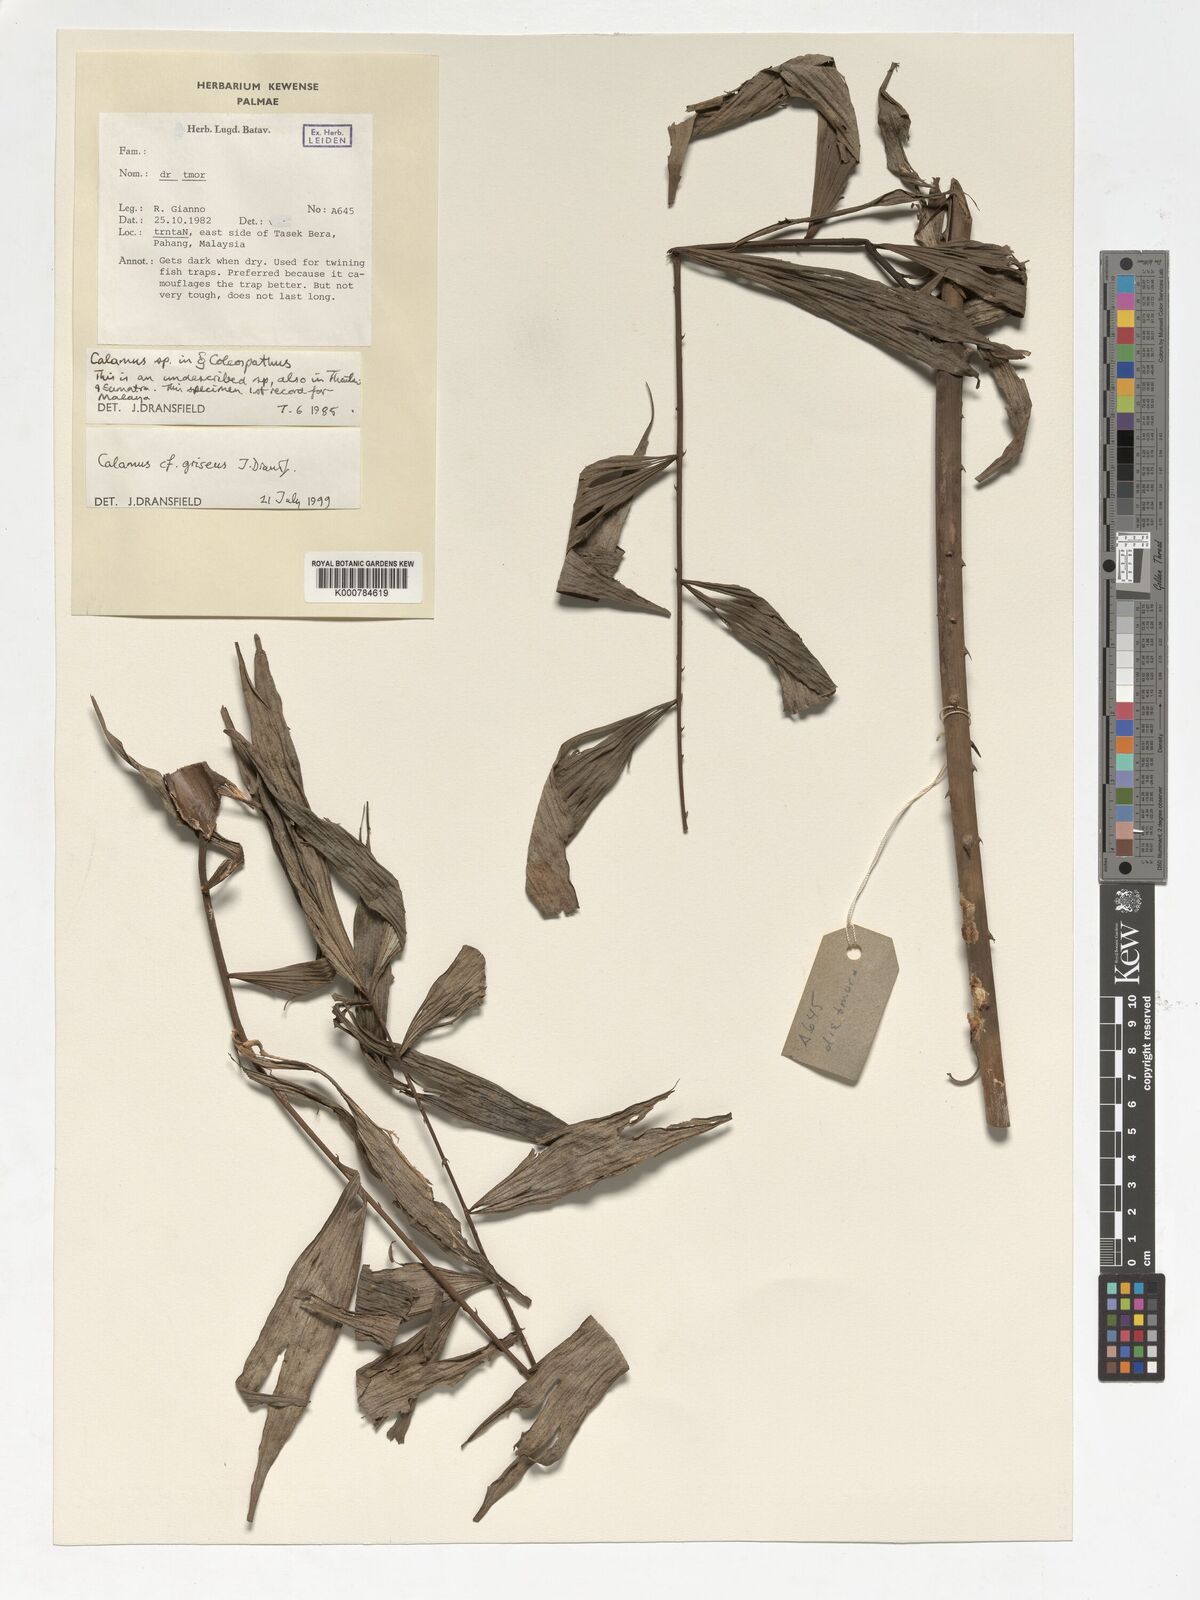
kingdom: Plantae
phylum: Tracheophyta
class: Liliopsida
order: Arecales
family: Arecaceae
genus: Calamus
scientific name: Calamus griseus
